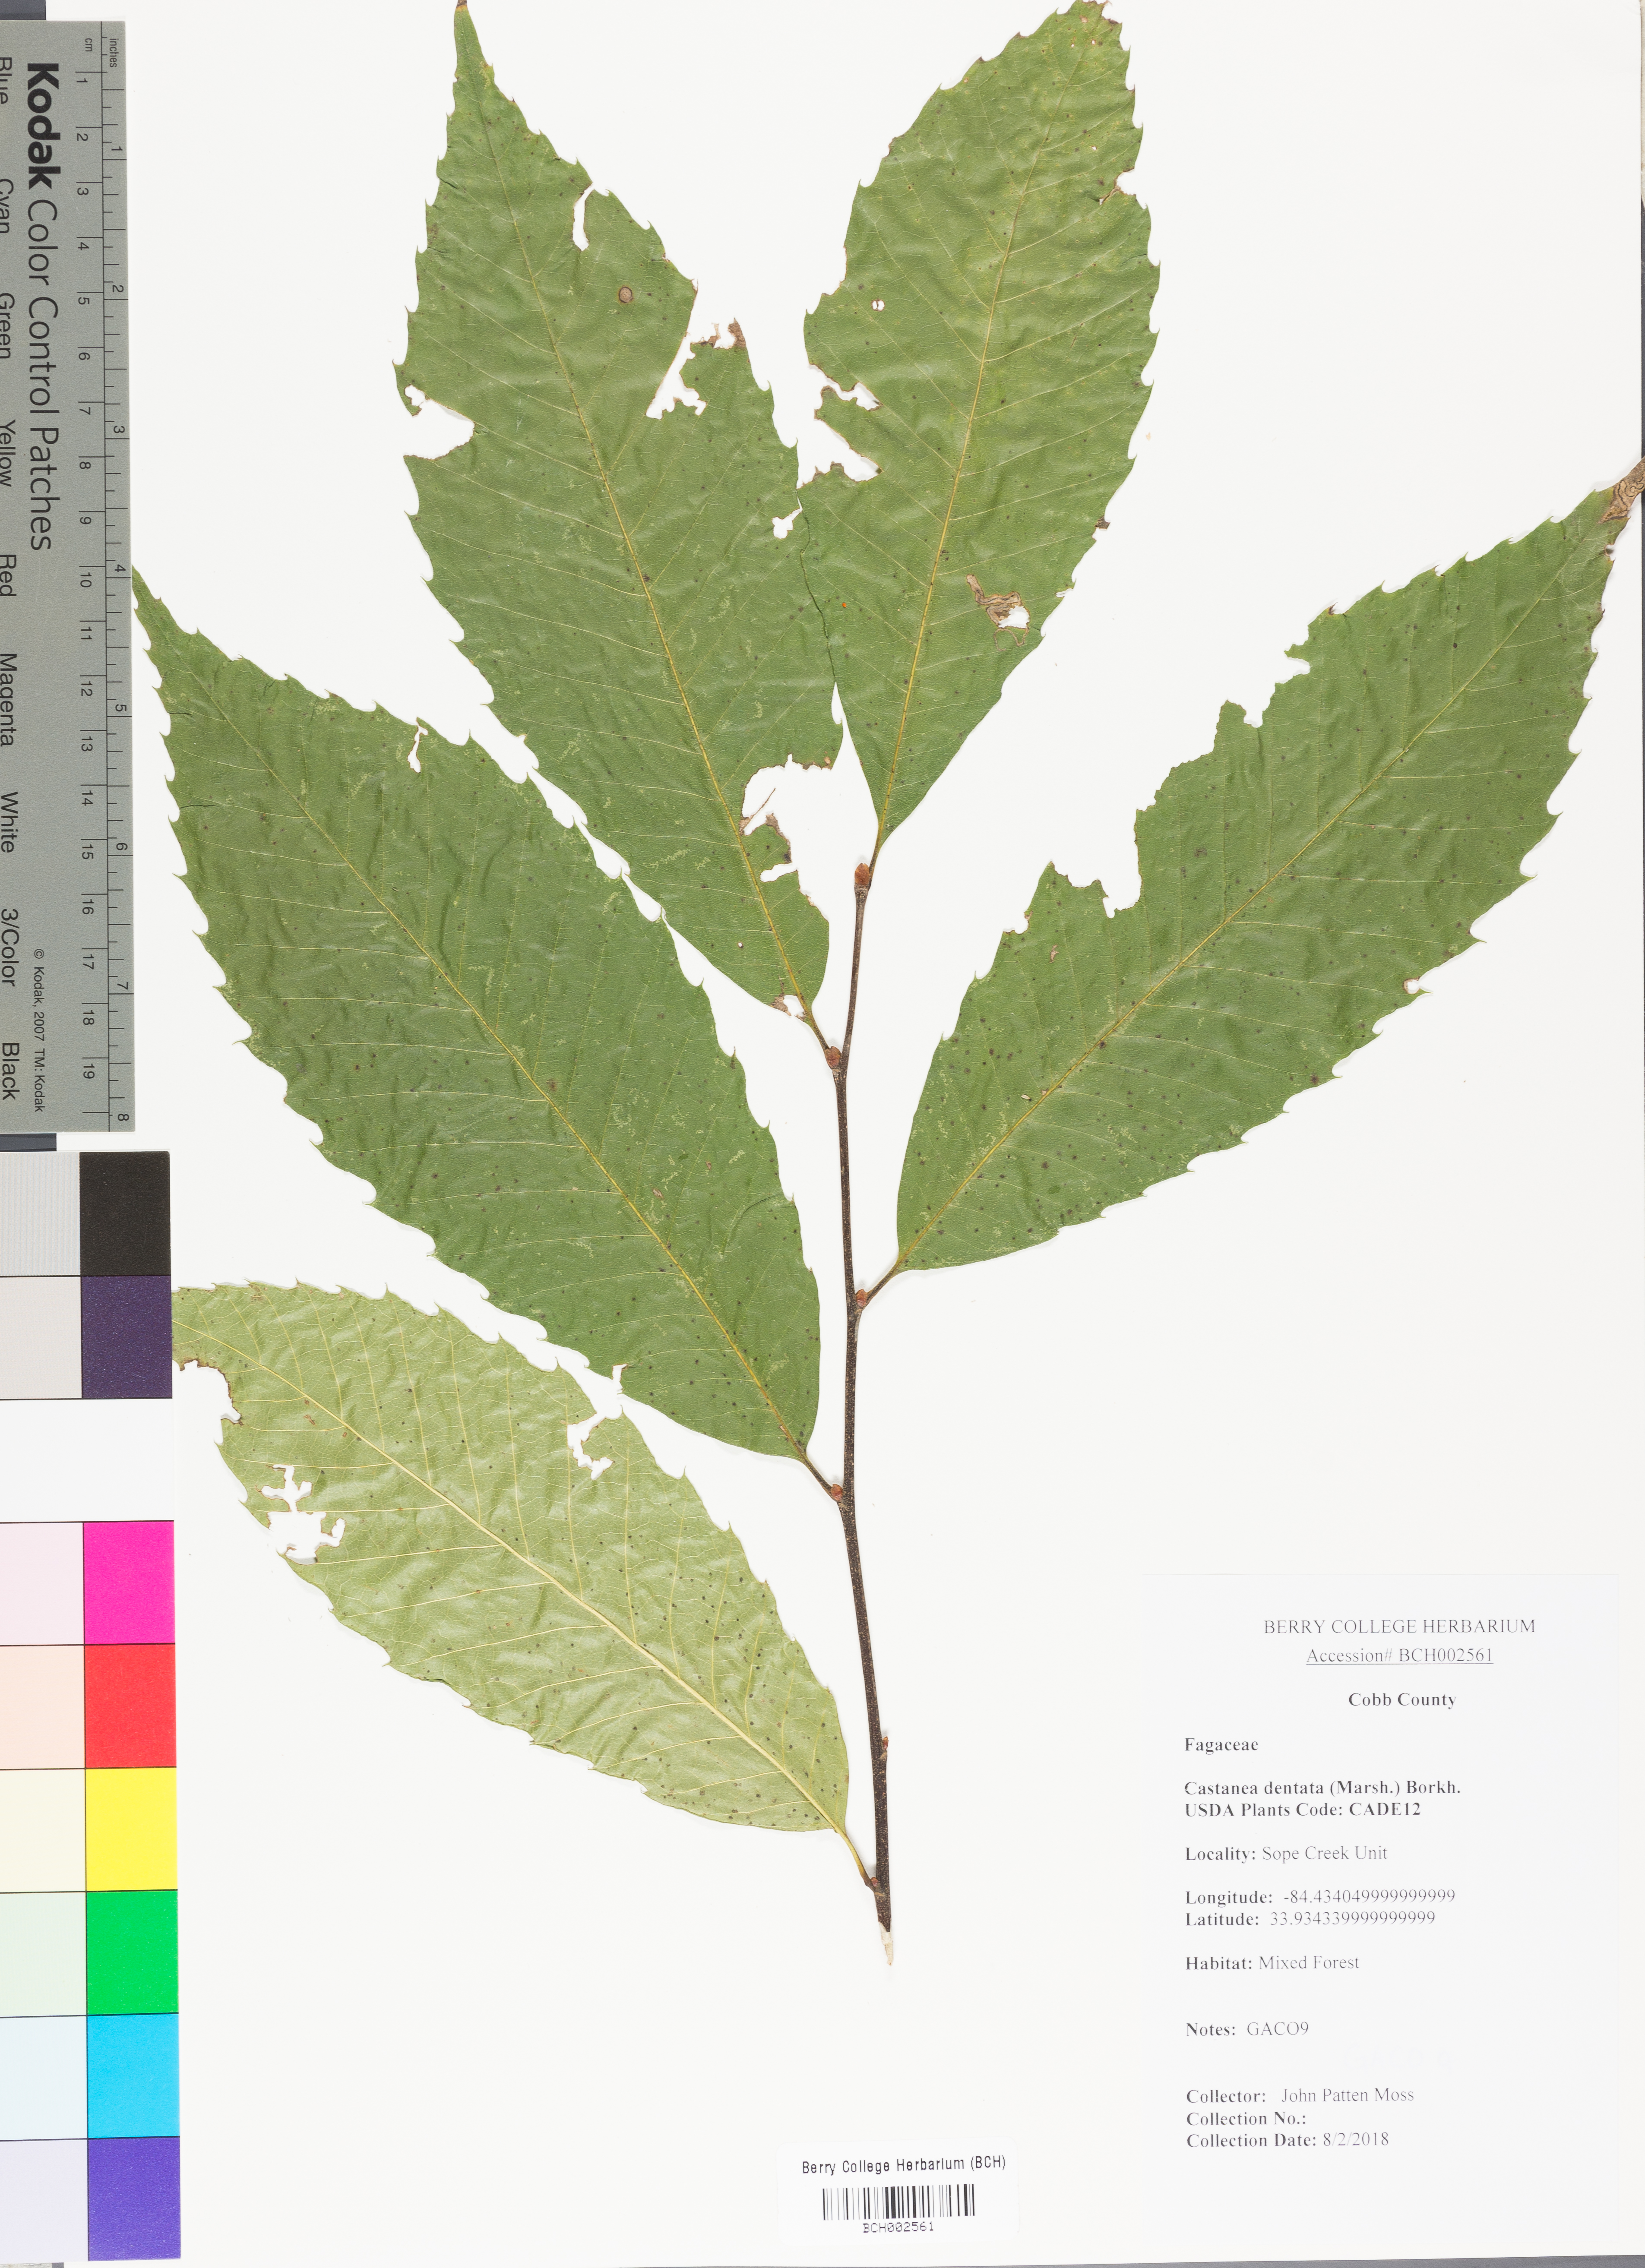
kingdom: Plantae
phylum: Tracheophyta
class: Magnoliopsida
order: Fagales
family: Fagaceae
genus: Castanea
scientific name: Castanea dentata
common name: American chestnut
